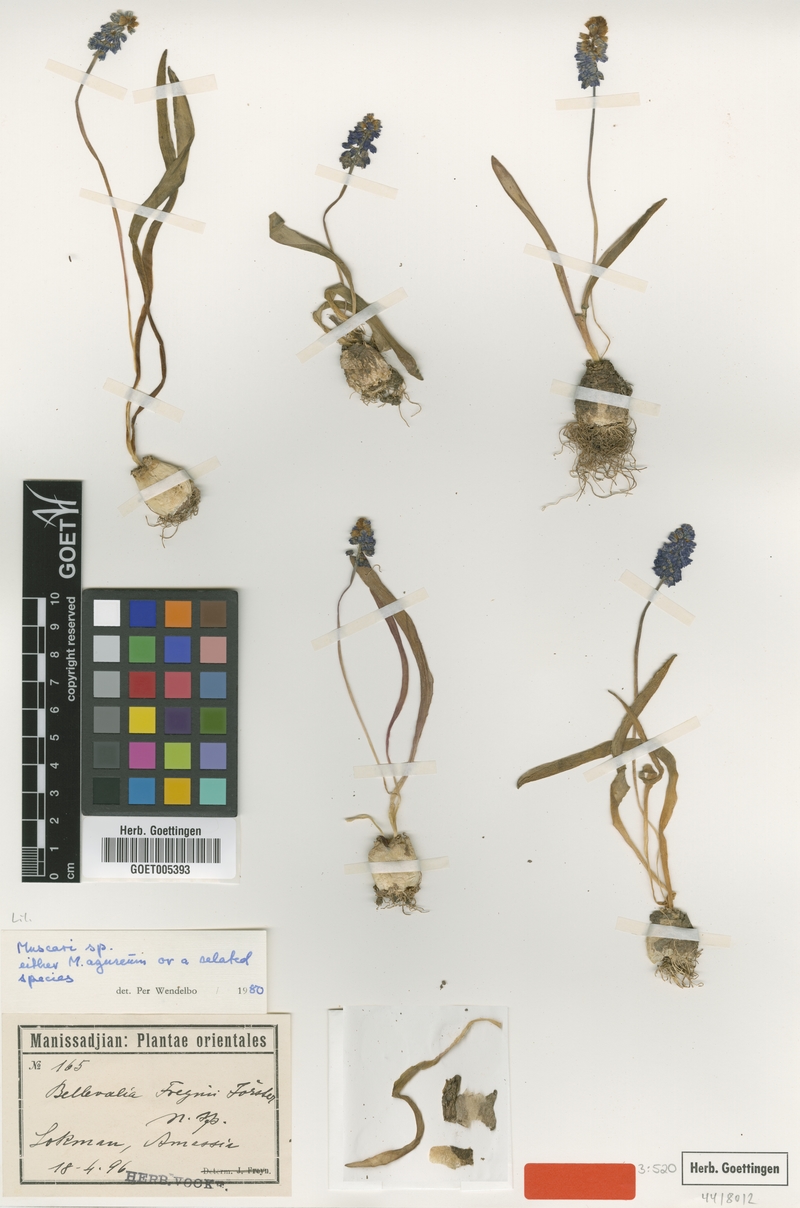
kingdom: Plantae
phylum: Tracheophyta
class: Liliopsida
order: Asparagales
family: Asparagaceae
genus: Muscari
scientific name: Muscari azureum
